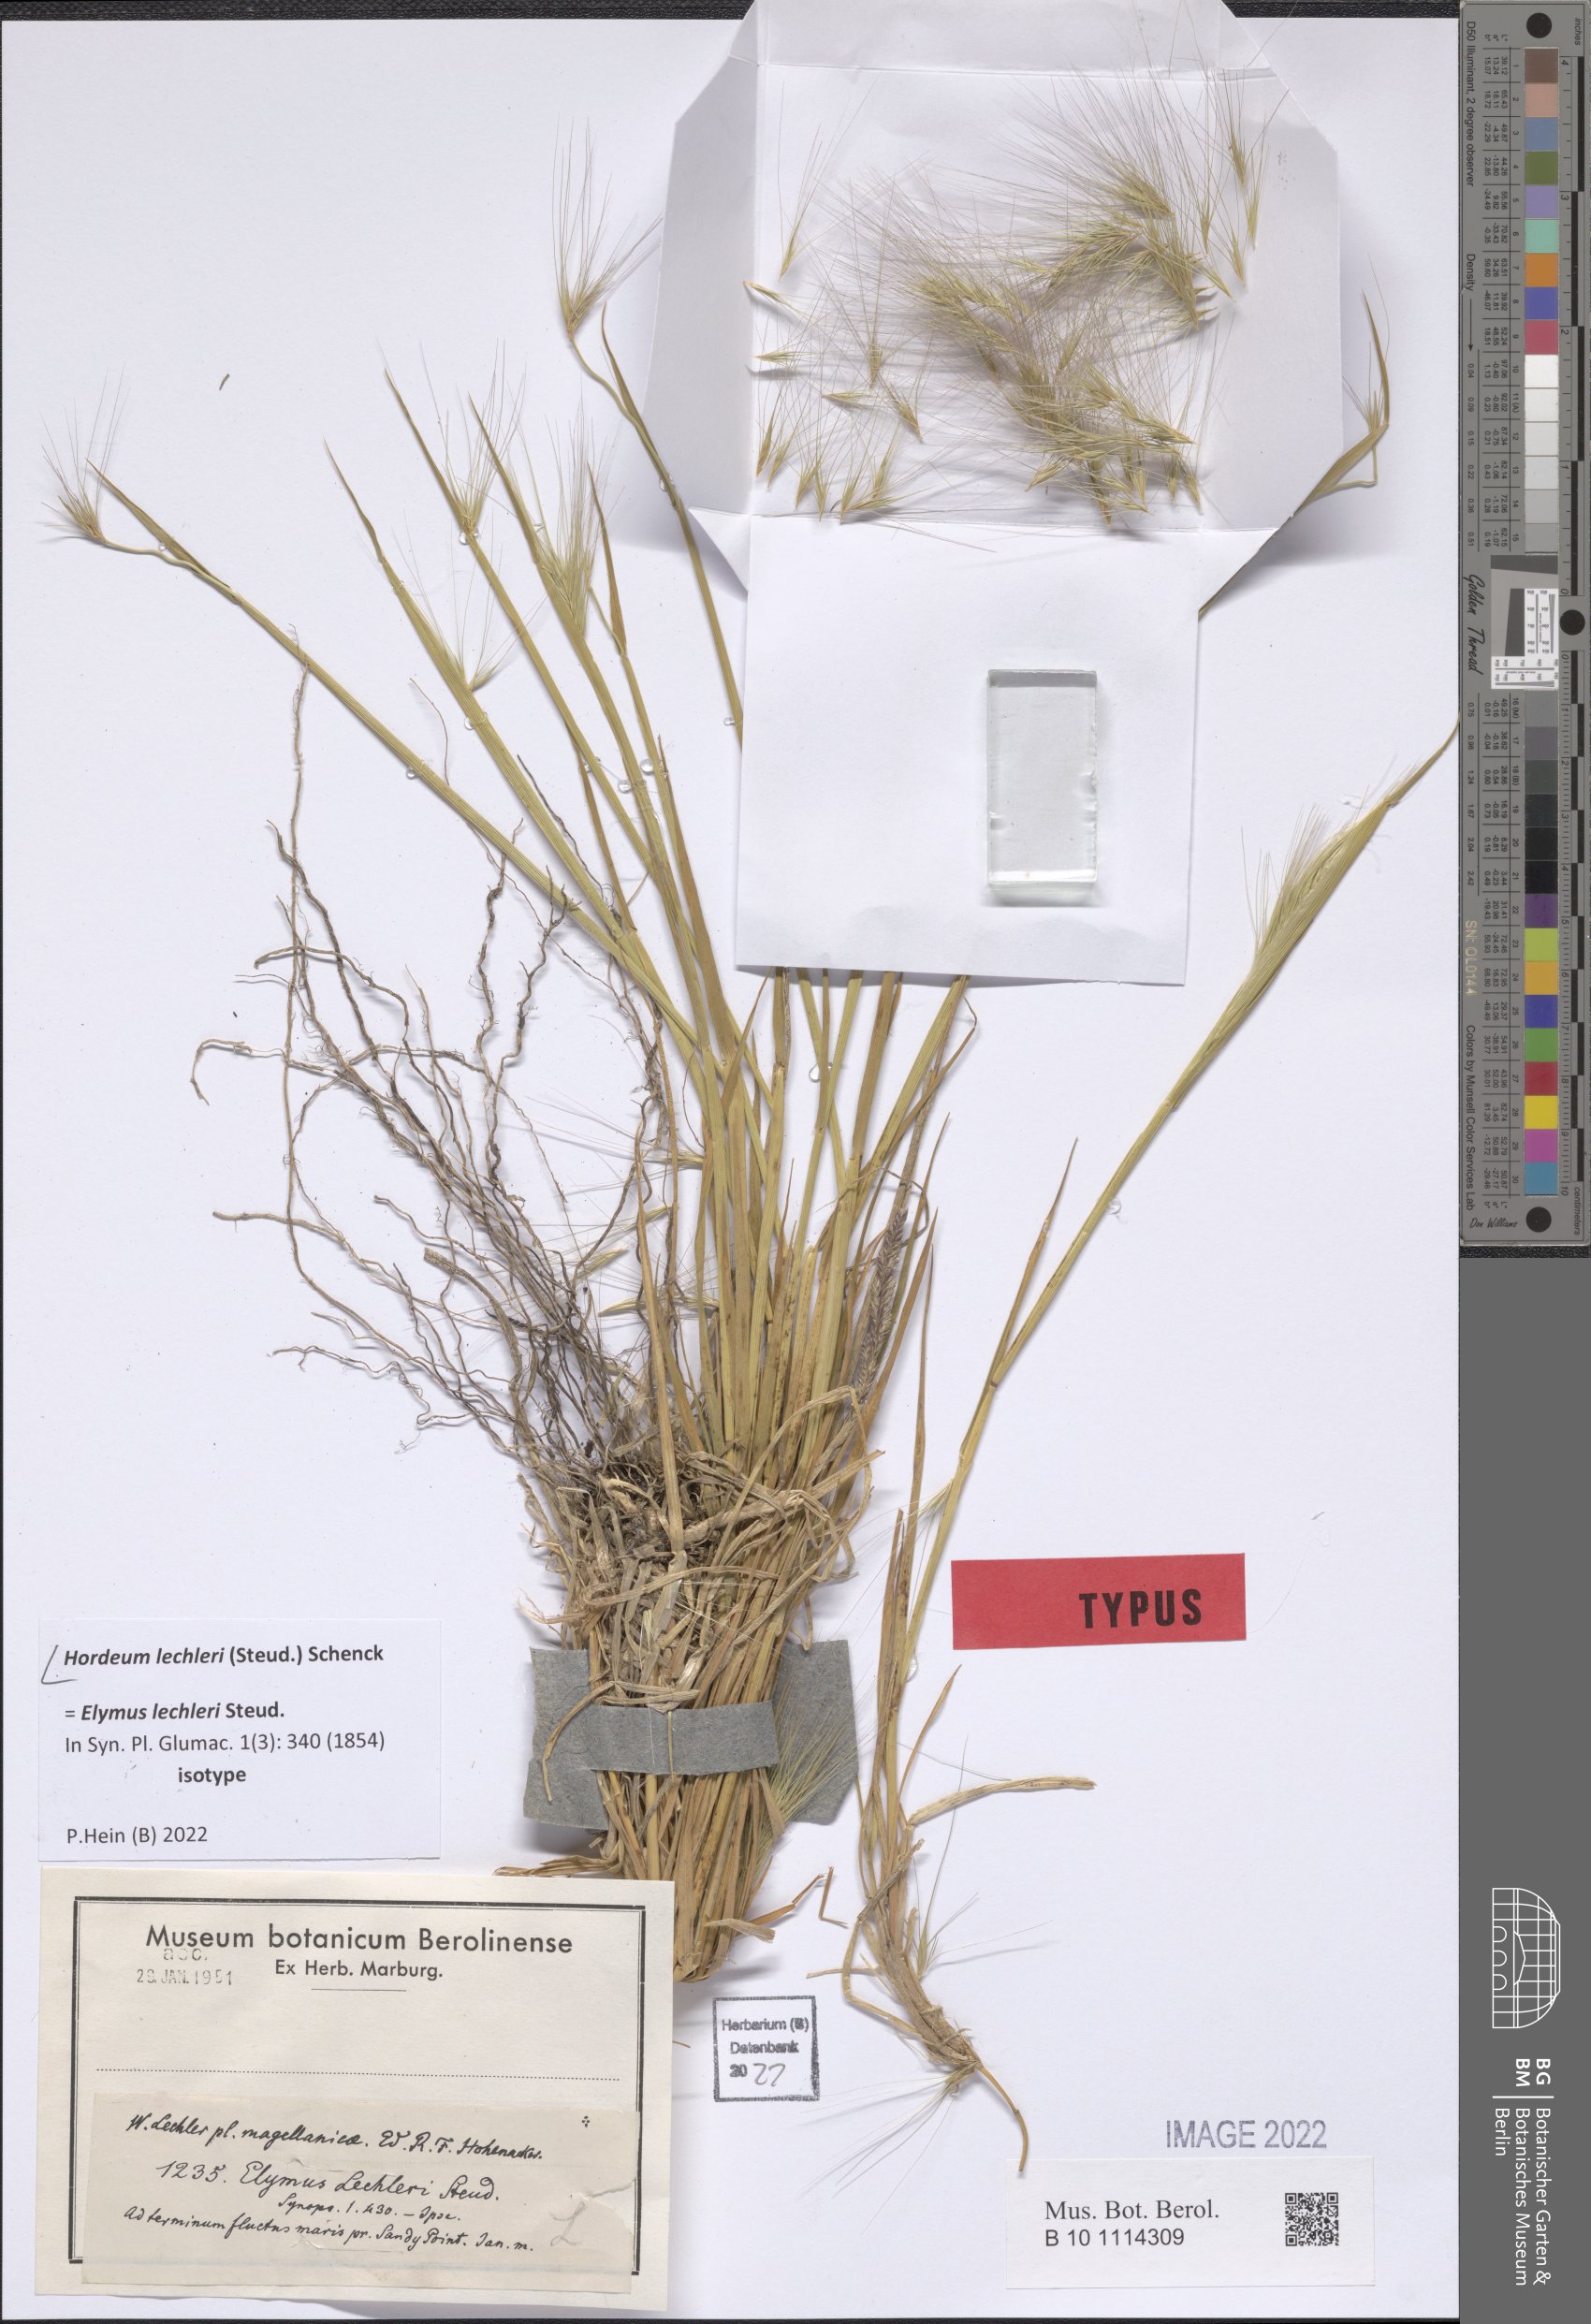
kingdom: Plantae
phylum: Tracheophyta
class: Liliopsida
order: Poales
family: Poaceae
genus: Hordeum
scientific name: Hordeum lechleri
